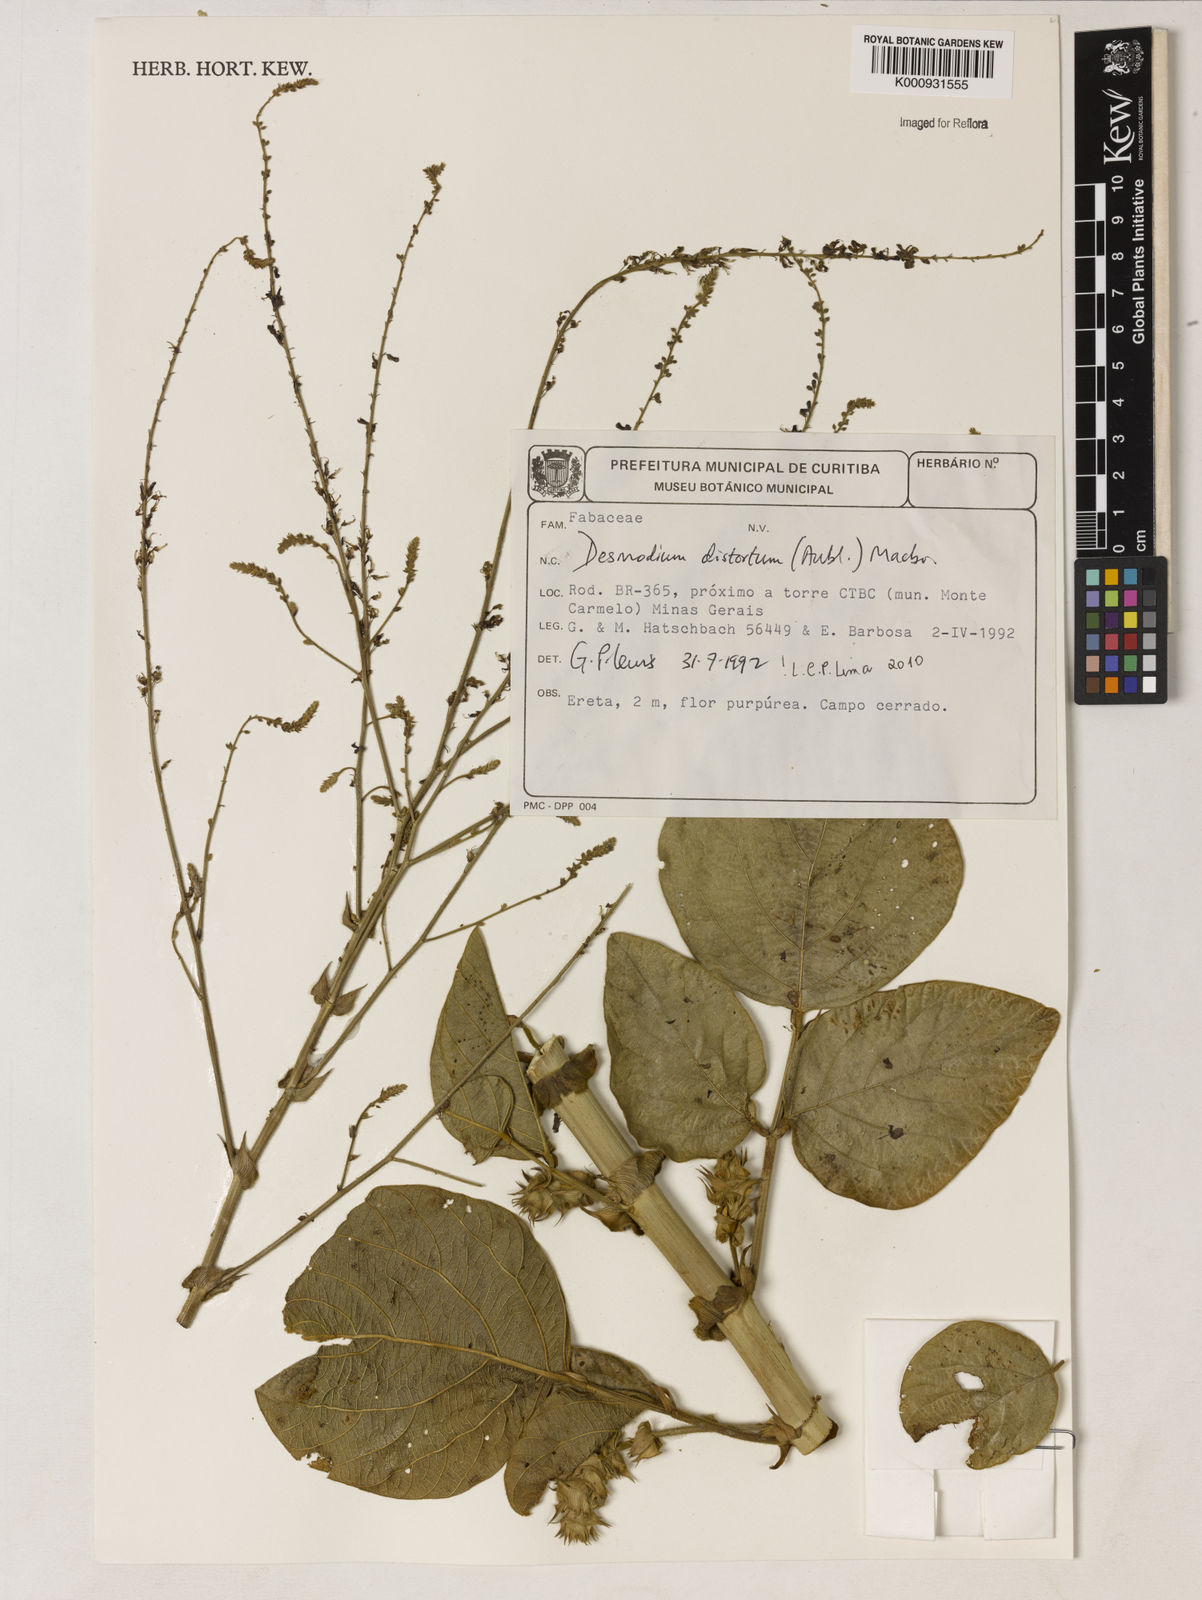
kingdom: Plantae
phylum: Tracheophyta
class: Magnoliopsida
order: Fabales
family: Fabaceae
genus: Desmodium
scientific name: Desmodium distortum
